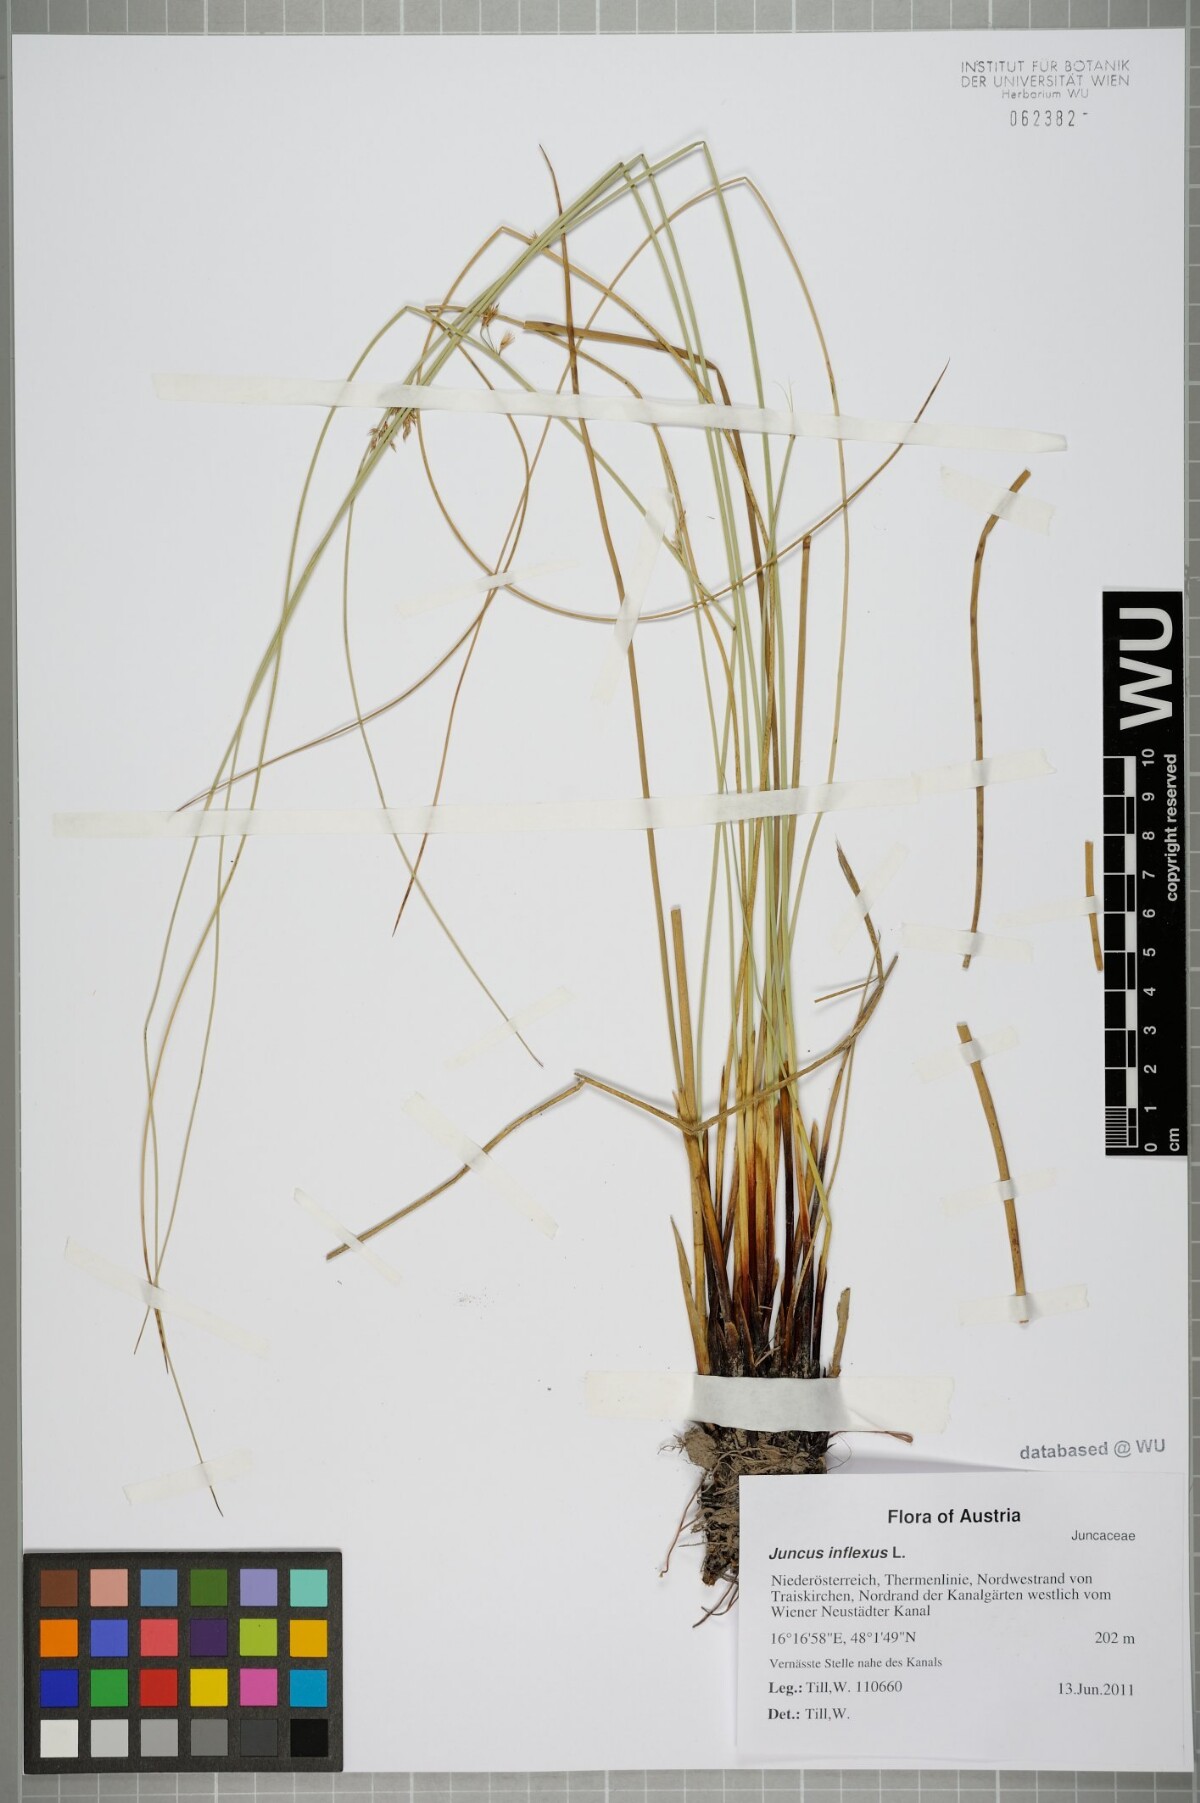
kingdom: Plantae
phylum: Tracheophyta
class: Liliopsida
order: Poales
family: Juncaceae
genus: Juncus
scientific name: Juncus inflexus
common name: Hard rush
